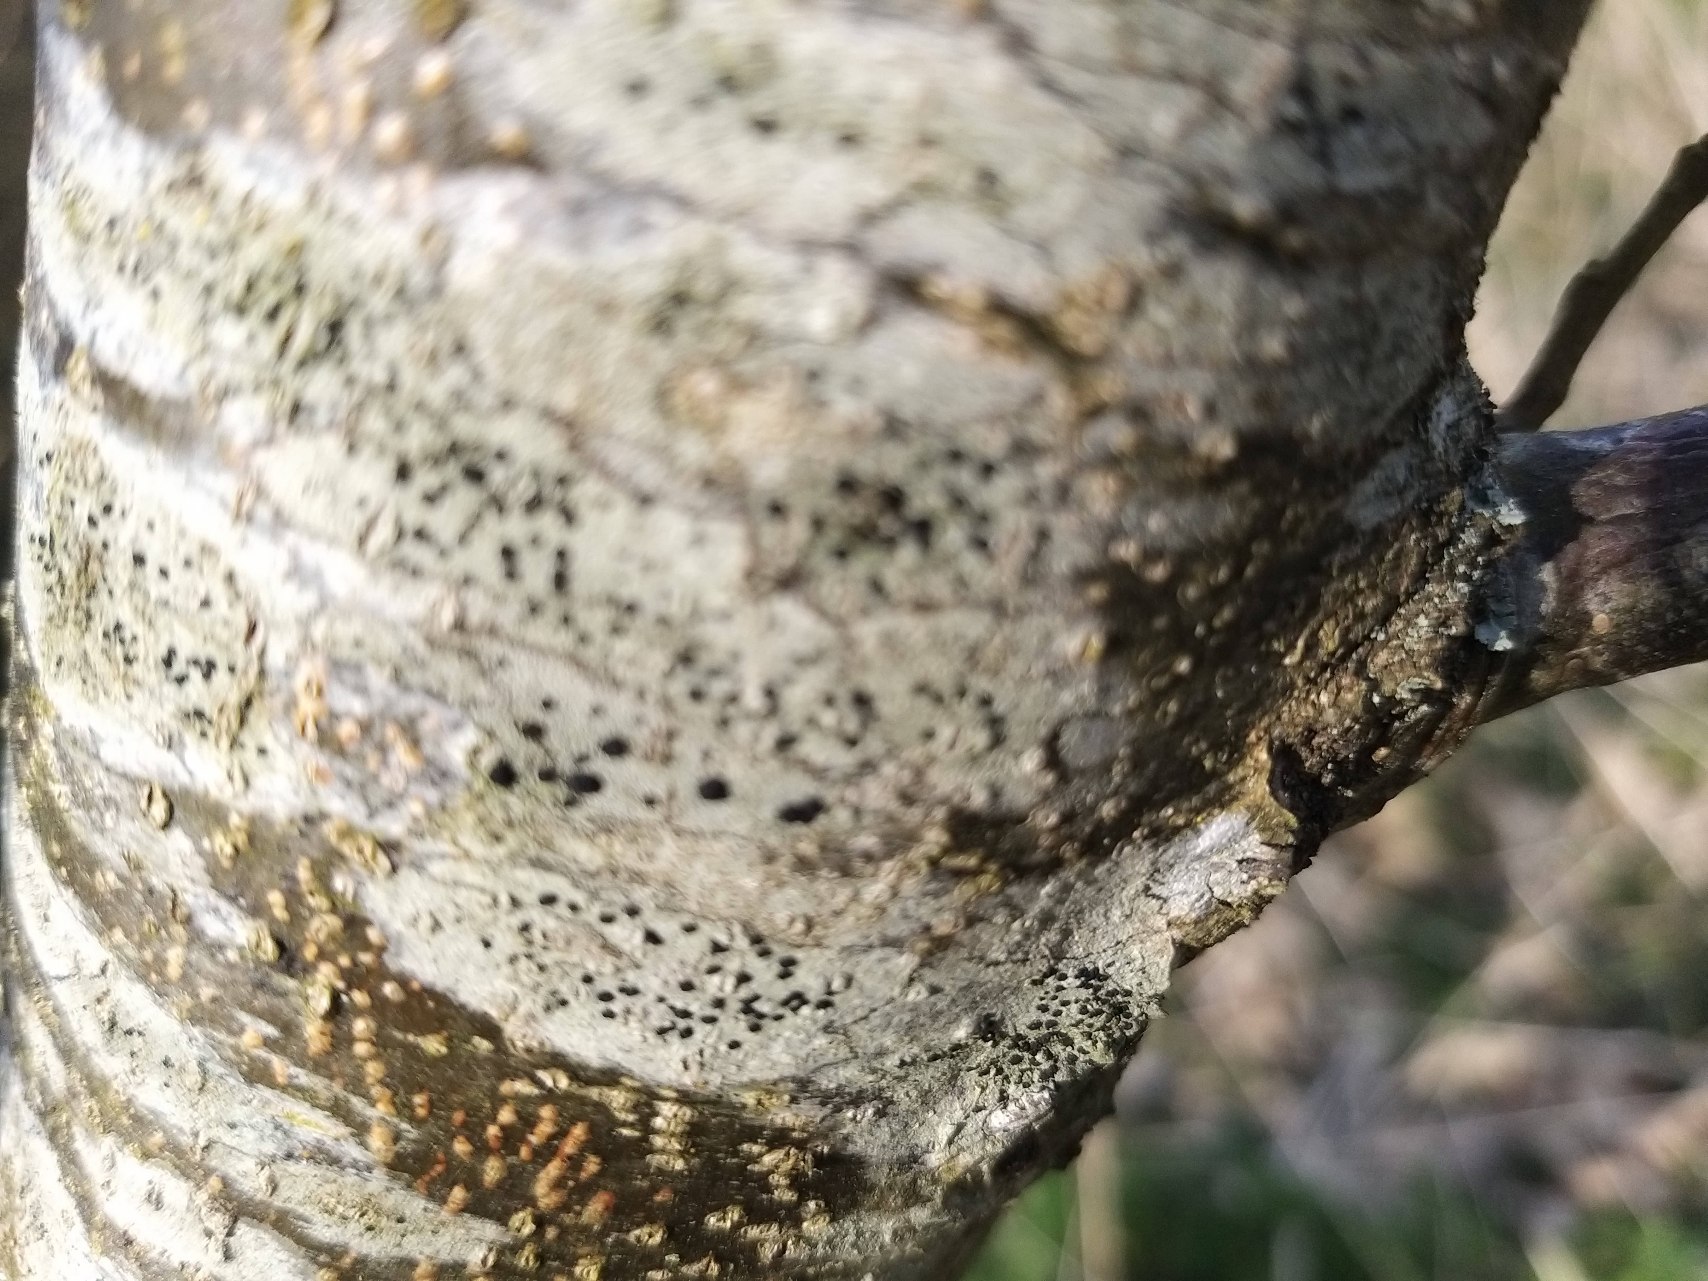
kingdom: Fungi
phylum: Ascomycota
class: Lecanoromycetes
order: Lecanorales
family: Lecanoraceae
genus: Lecidella
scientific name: Lecidella elaeochroma
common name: Grågrøn skivelav
